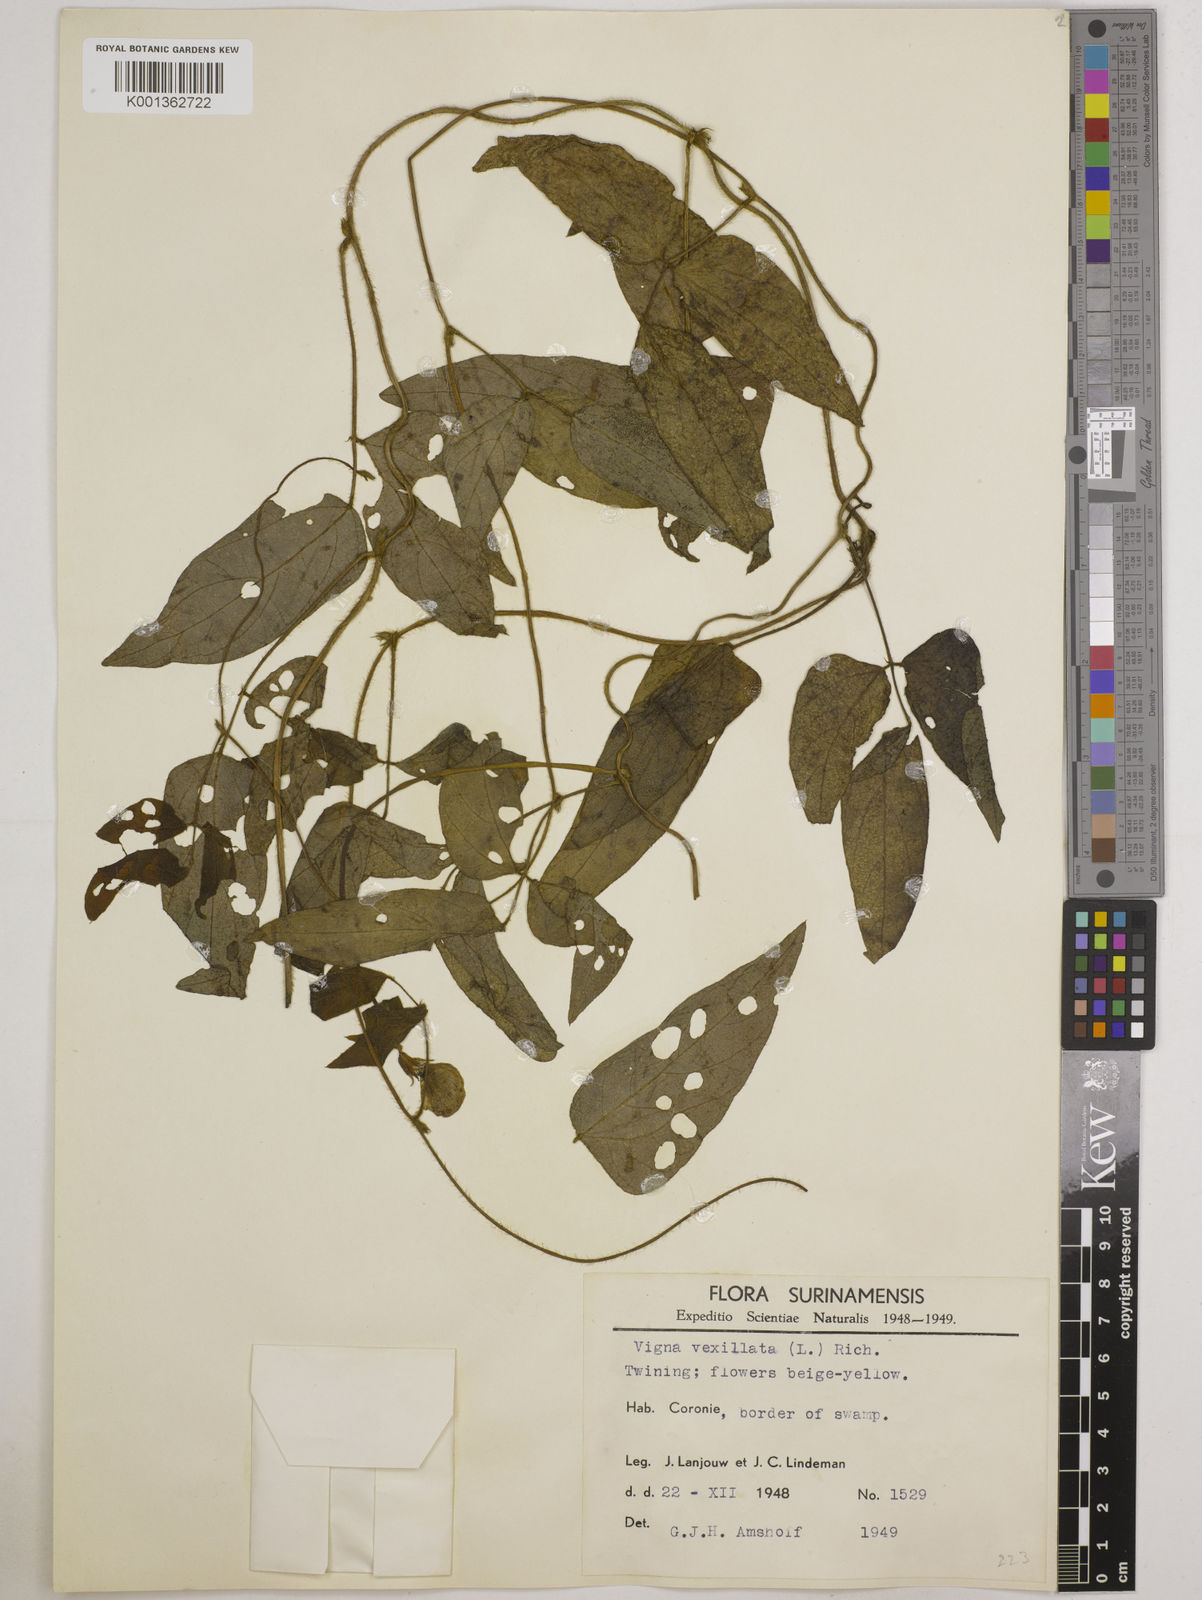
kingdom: Plantae
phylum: Tracheophyta
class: Magnoliopsida
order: Fabales
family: Fabaceae
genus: Vigna
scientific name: Vigna vexillata
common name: Zombi pea
